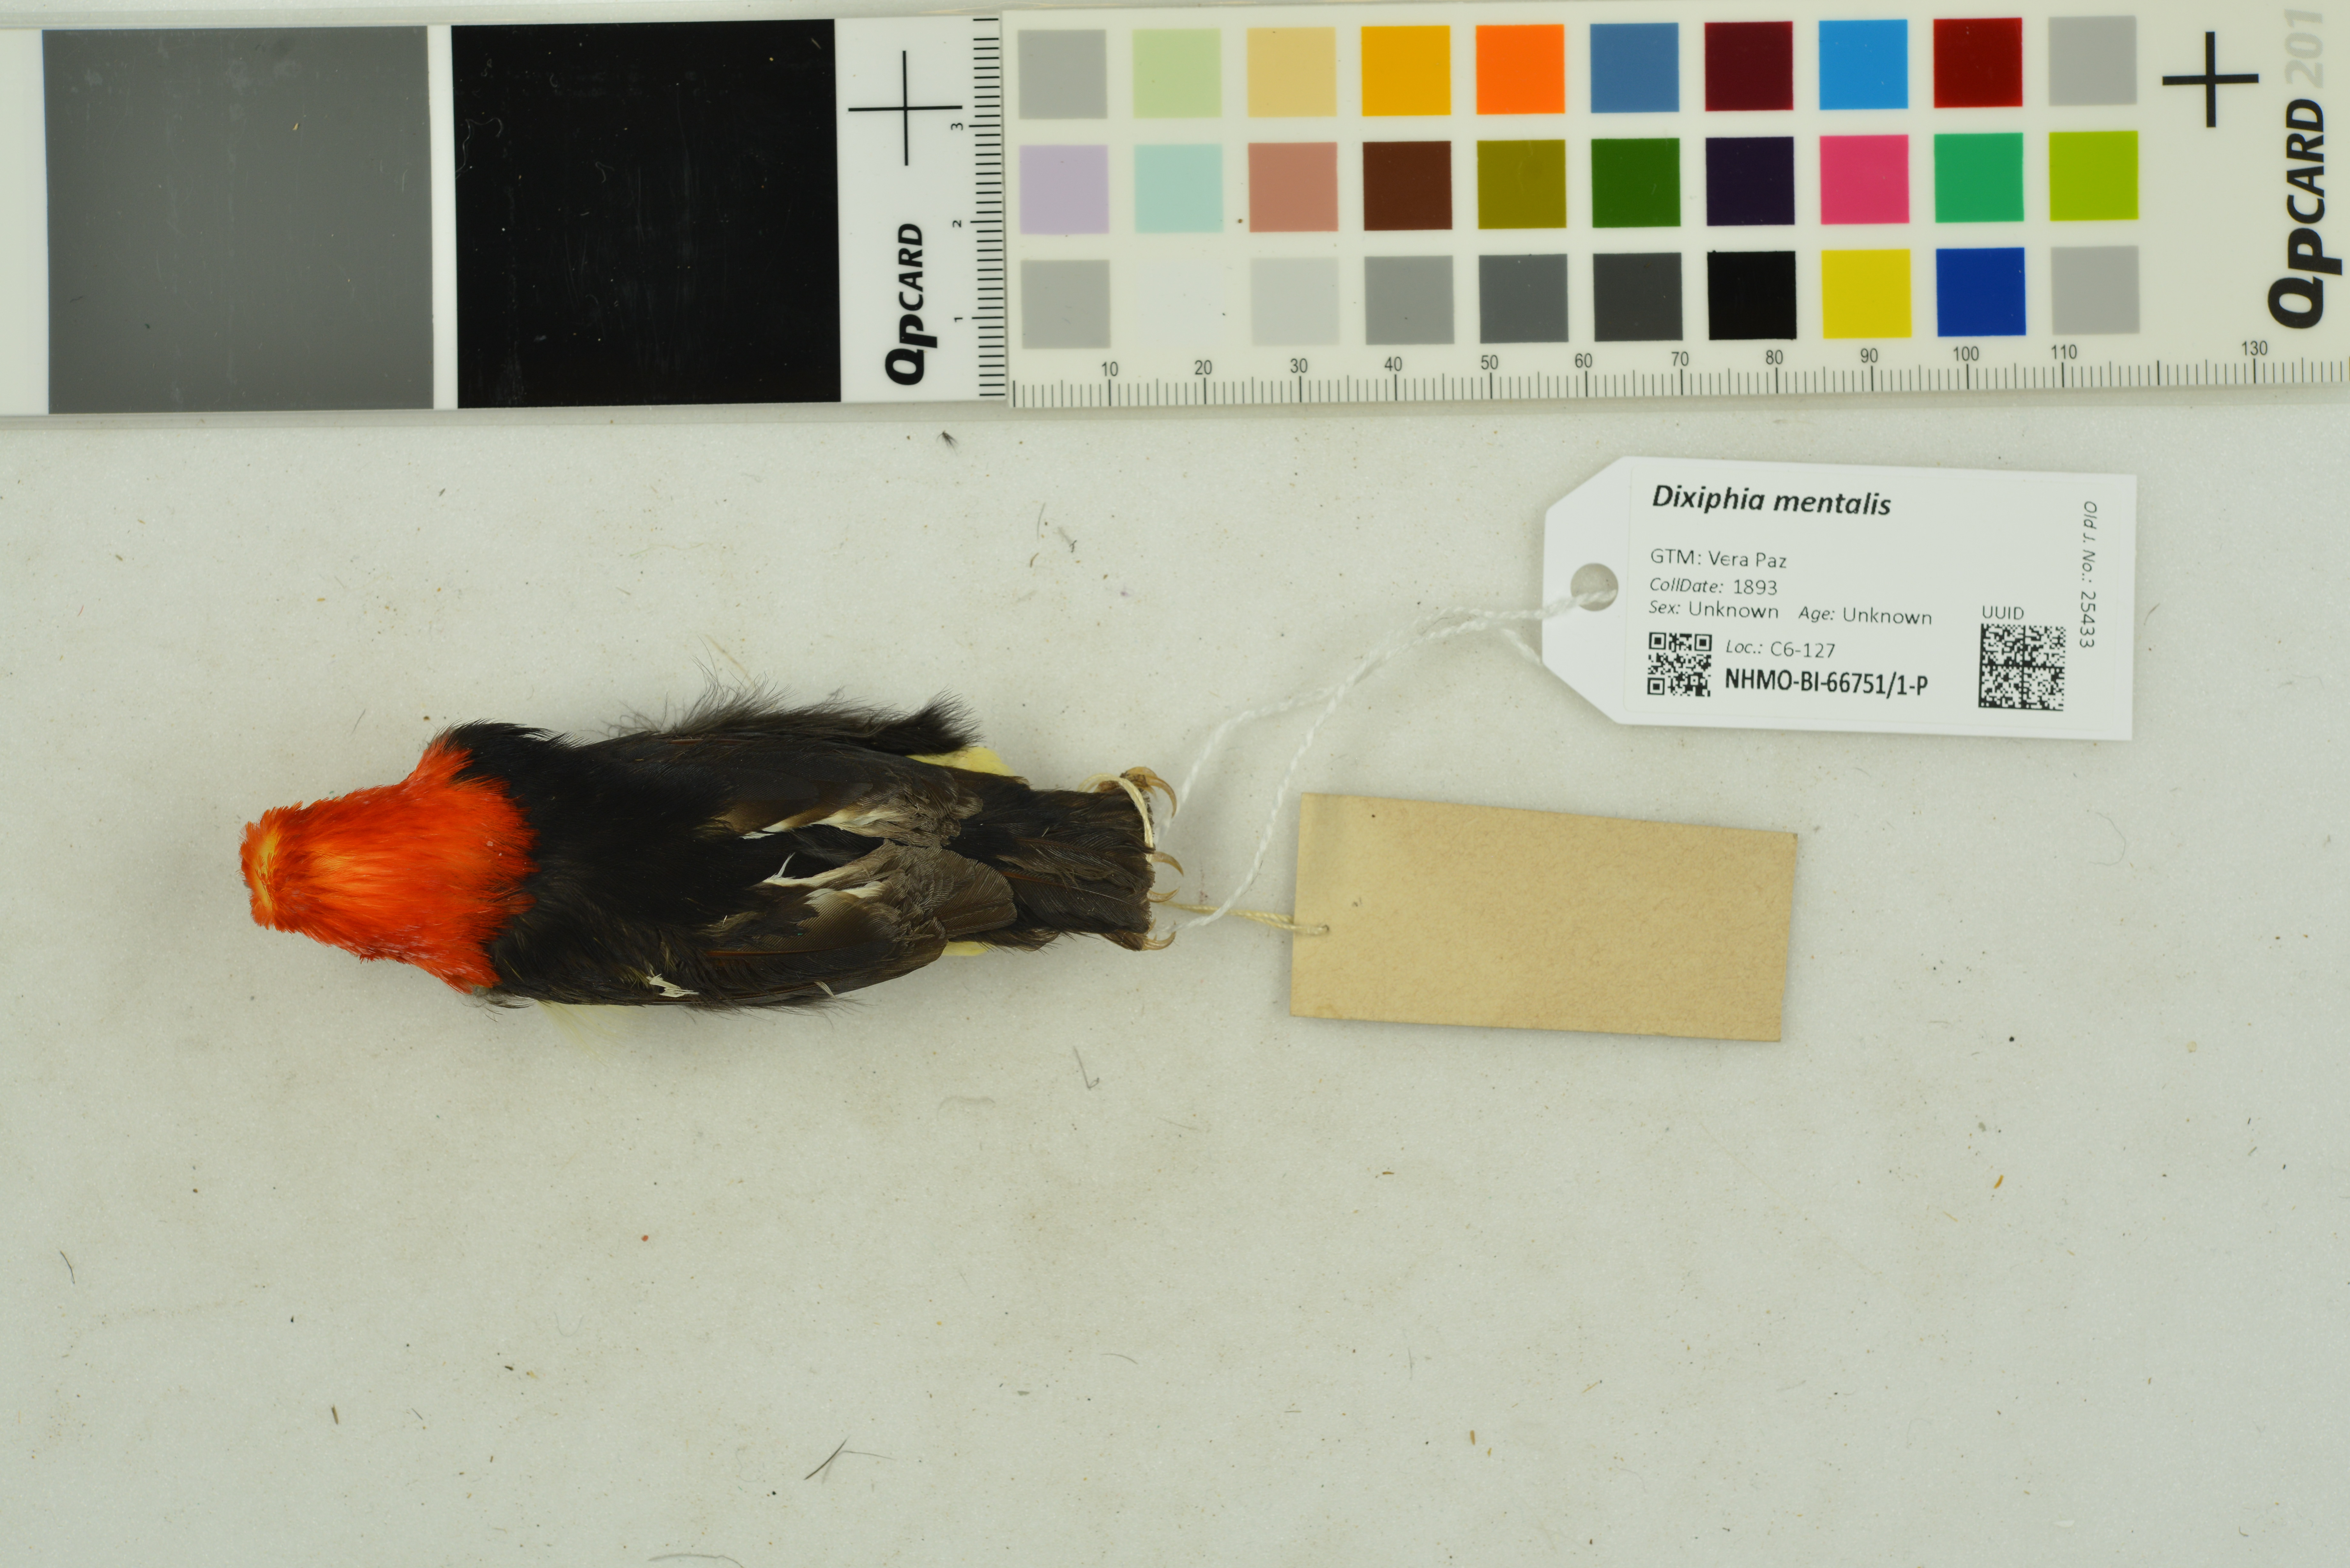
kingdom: Animalia
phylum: Chordata
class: Aves
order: Passeriformes
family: Pipridae
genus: Pipra
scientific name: Pipra mentalis
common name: Red-capped manakin
